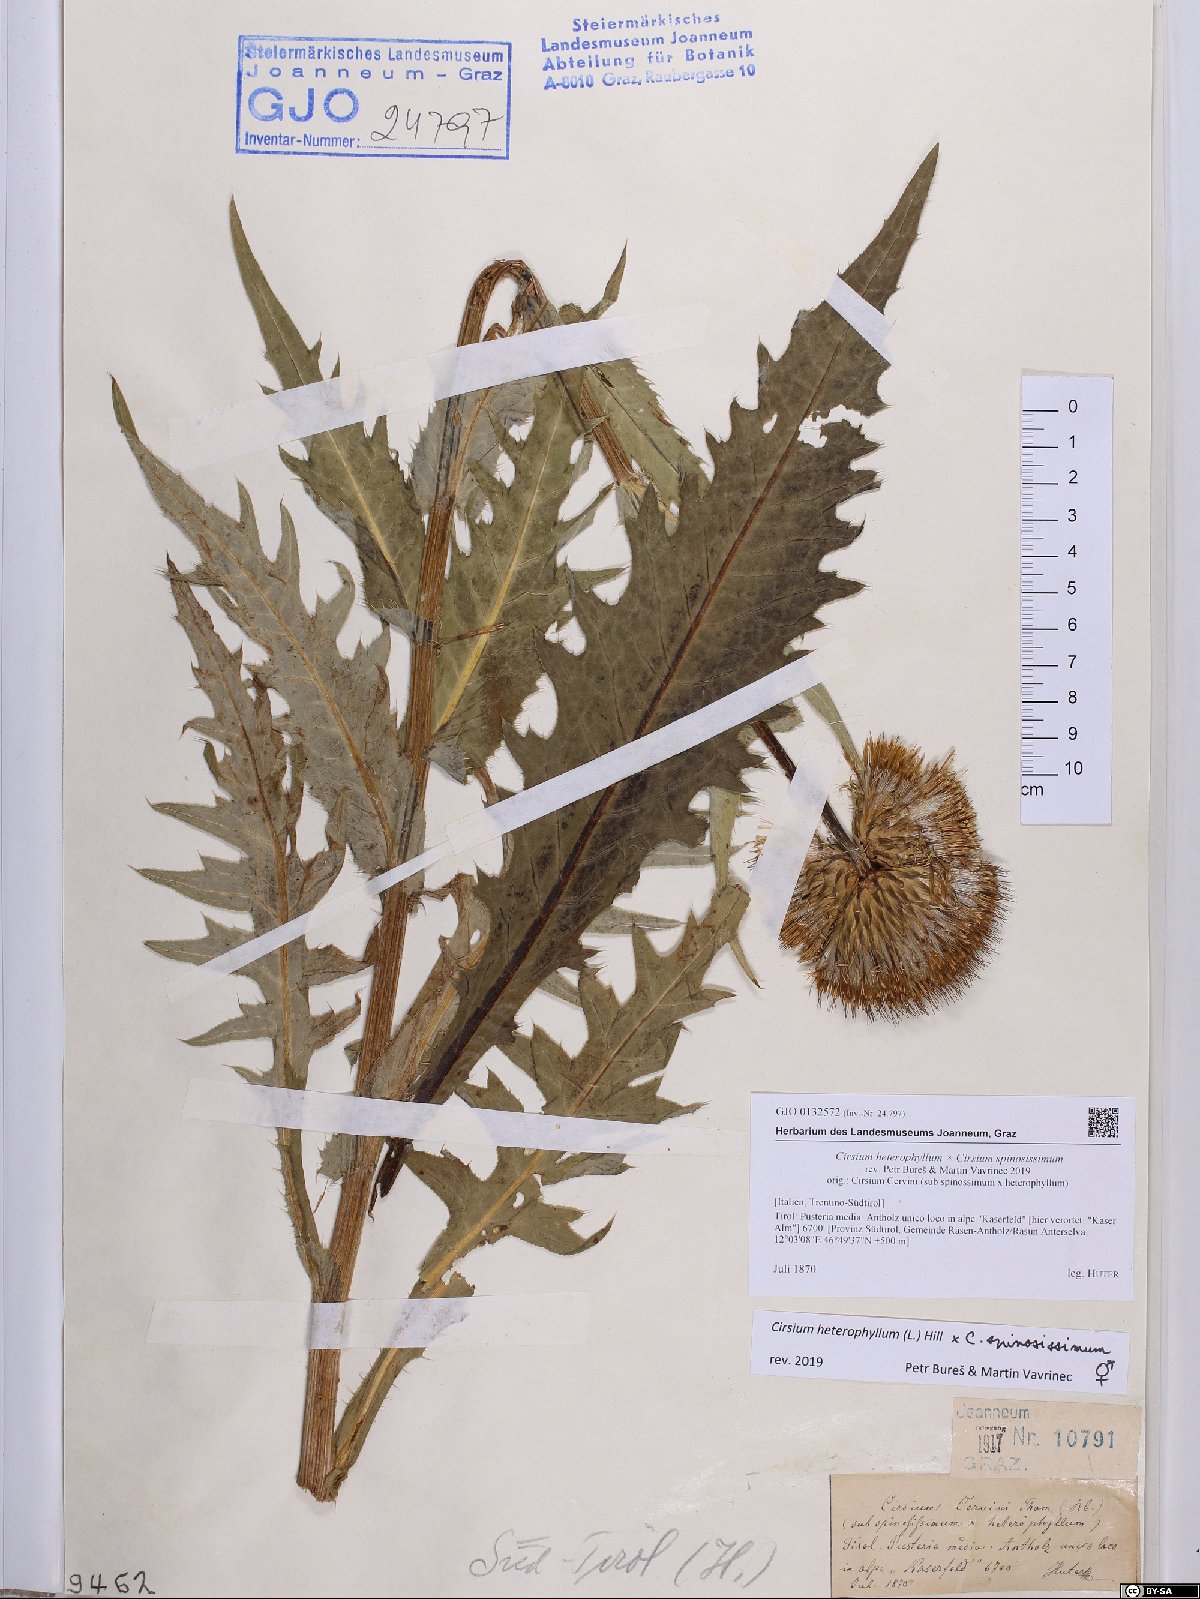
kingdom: Plantae
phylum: Tracheophyta
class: Magnoliopsida
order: Asterales
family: Asteraceae
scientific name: Asteraceae
